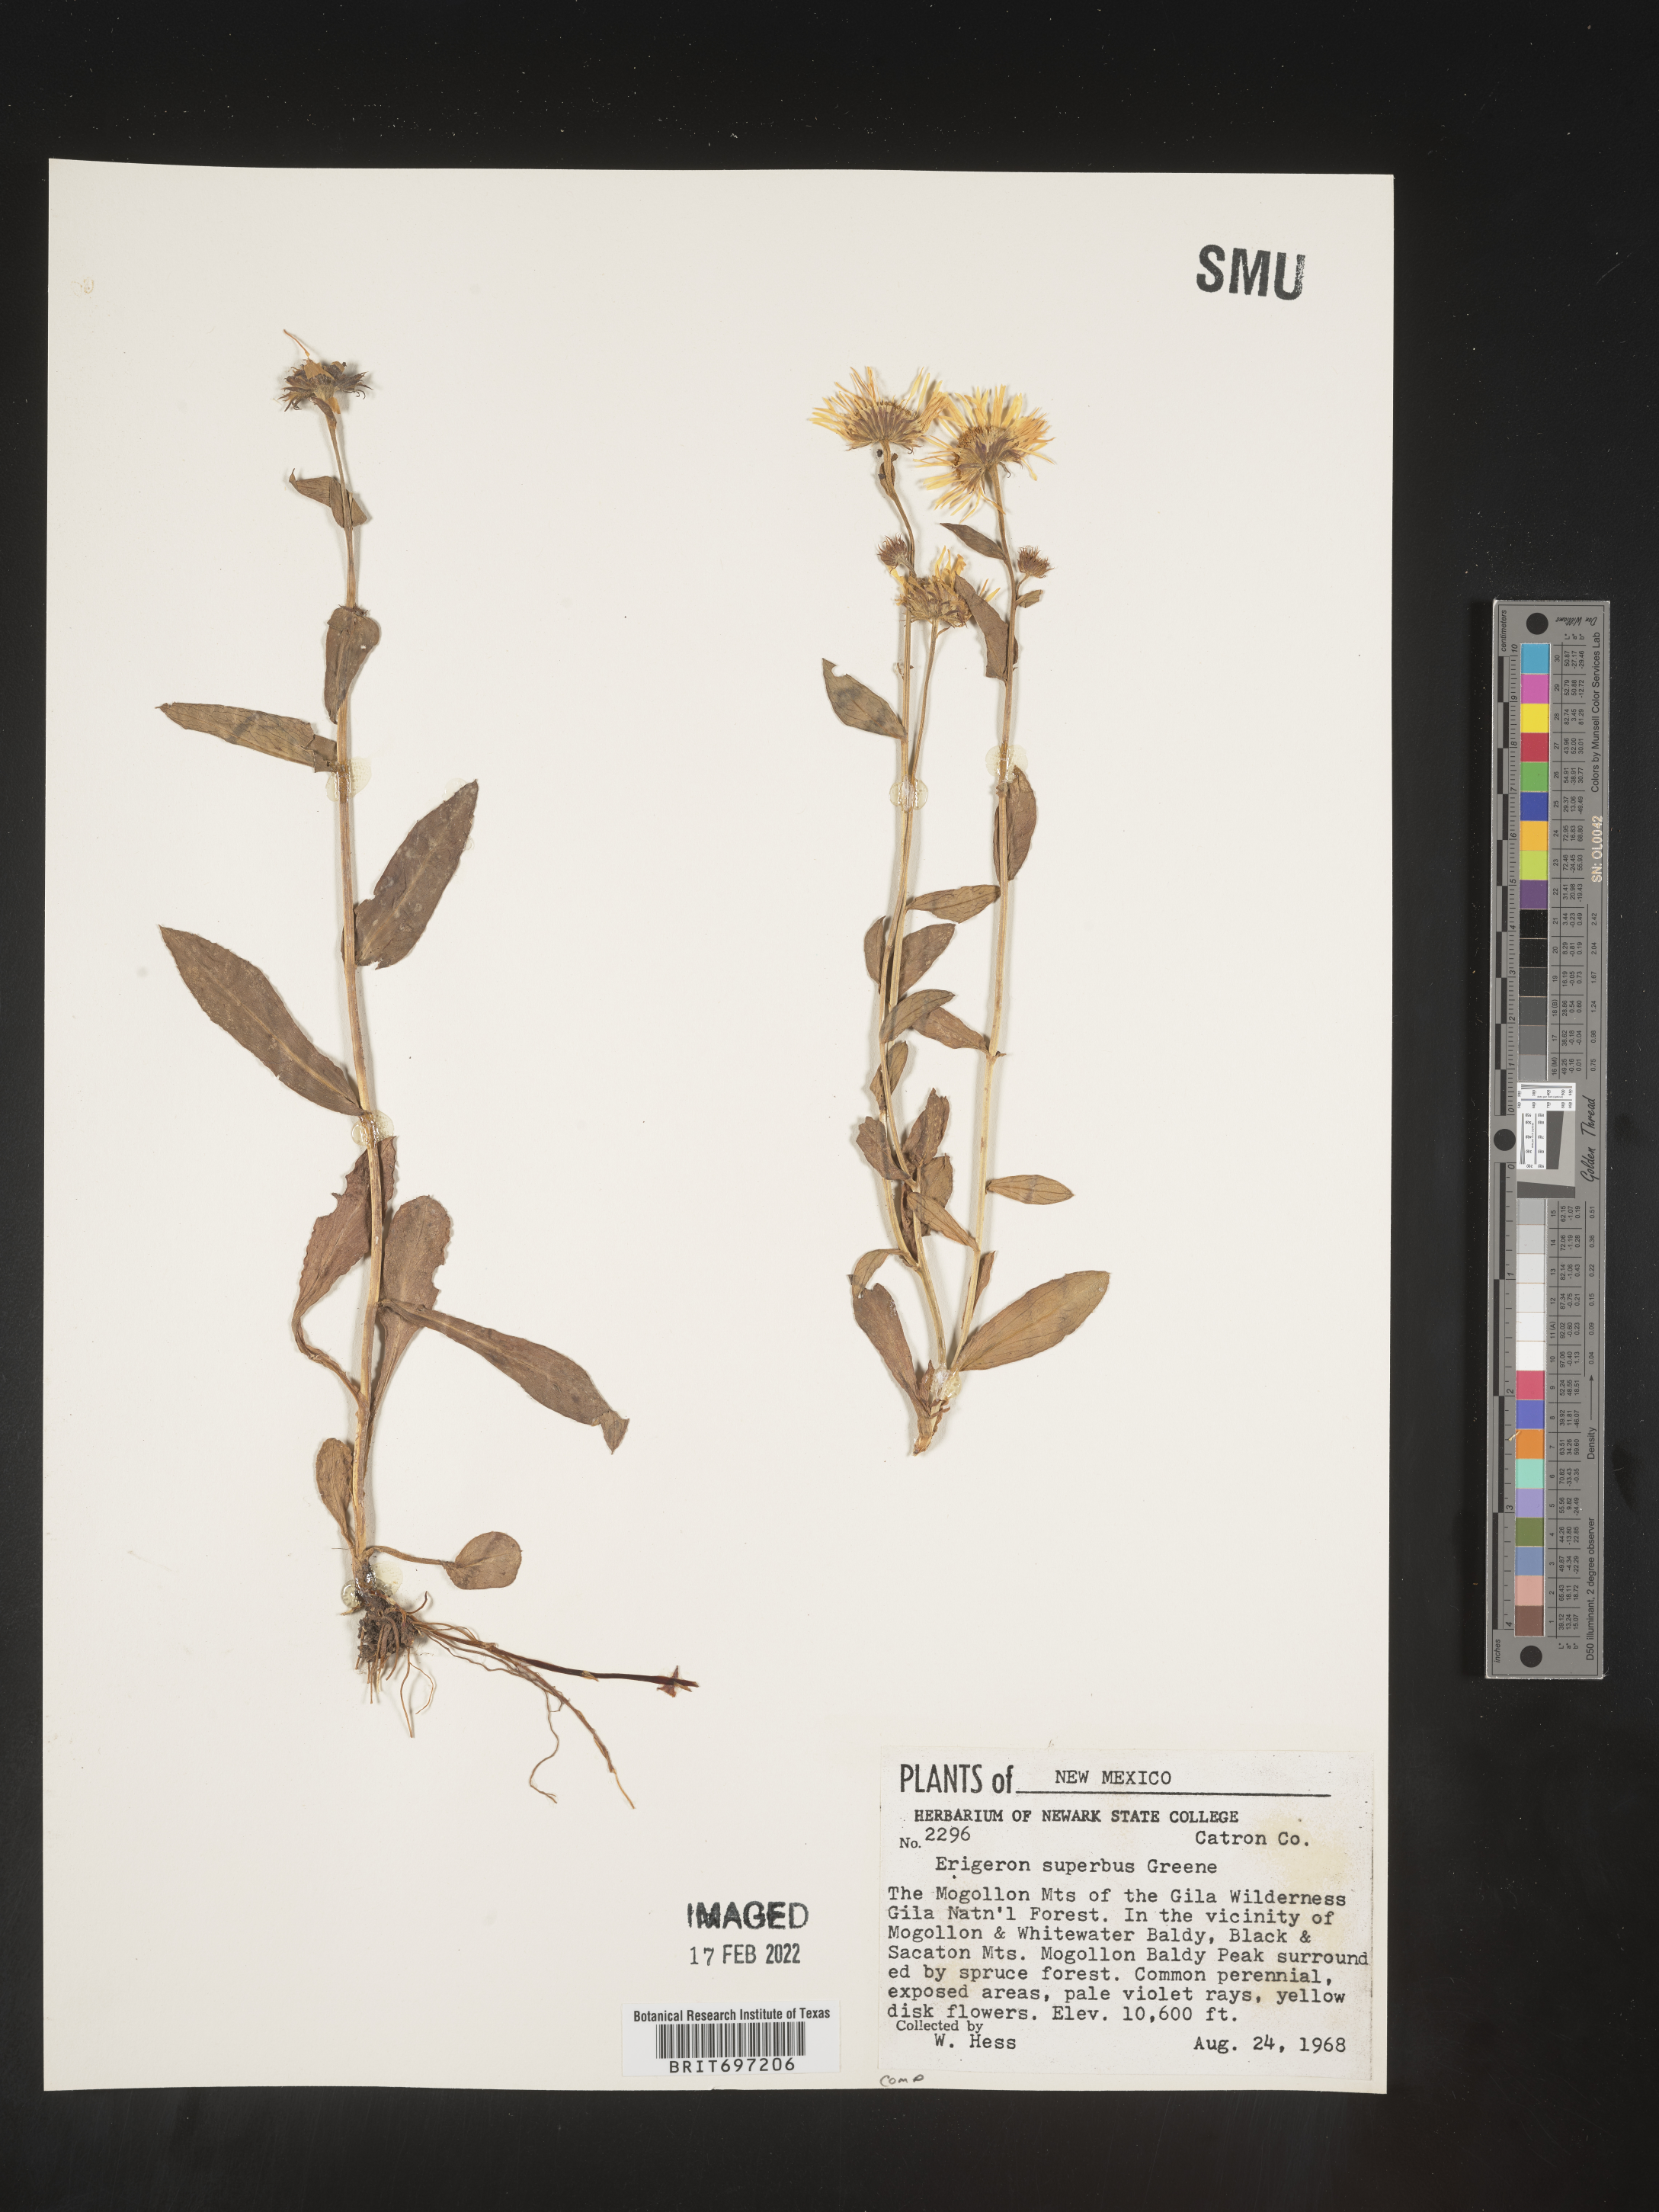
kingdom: Plantae
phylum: Tracheophyta
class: Magnoliopsida
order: Asterales
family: Asteraceae
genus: Erigeron
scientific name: Erigeron eximius
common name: Spruce-fir fleabane
